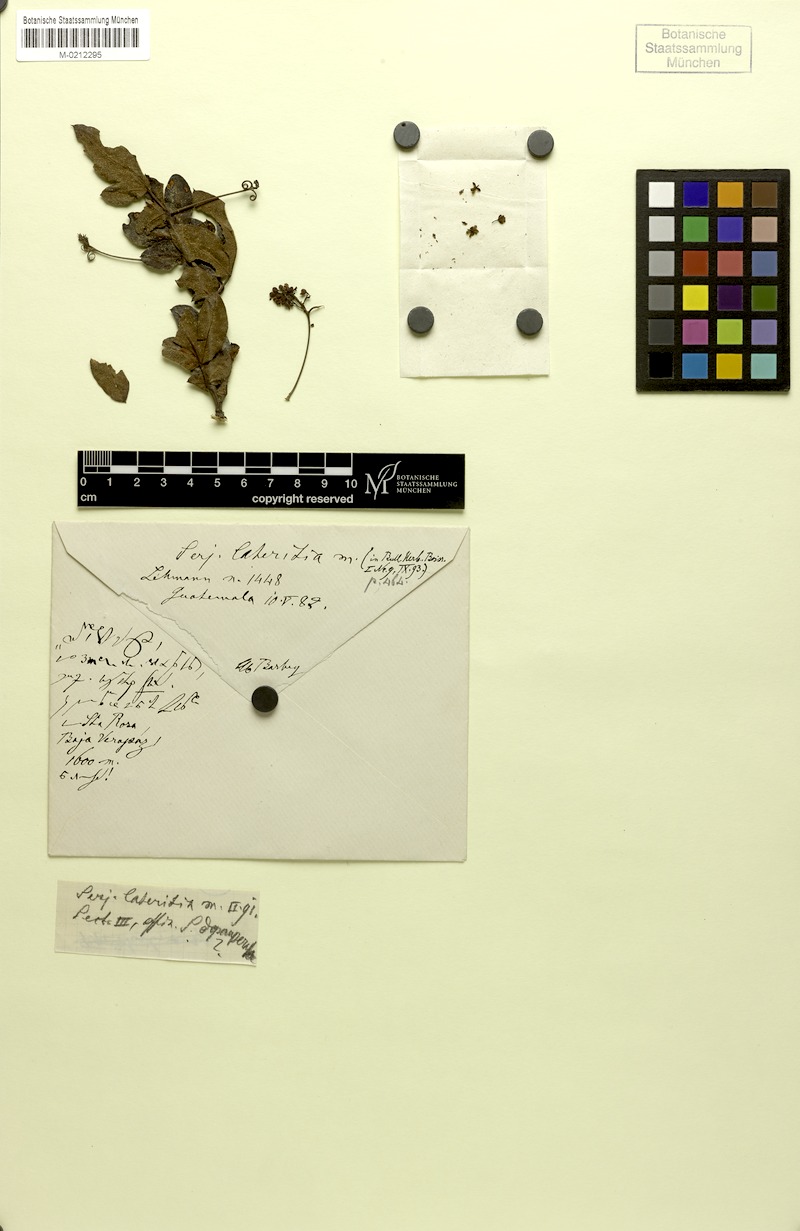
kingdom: Plantae
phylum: Tracheophyta
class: Magnoliopsida
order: Sapindales
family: Sapindaceae
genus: Serjania
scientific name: Serjania lateritia
